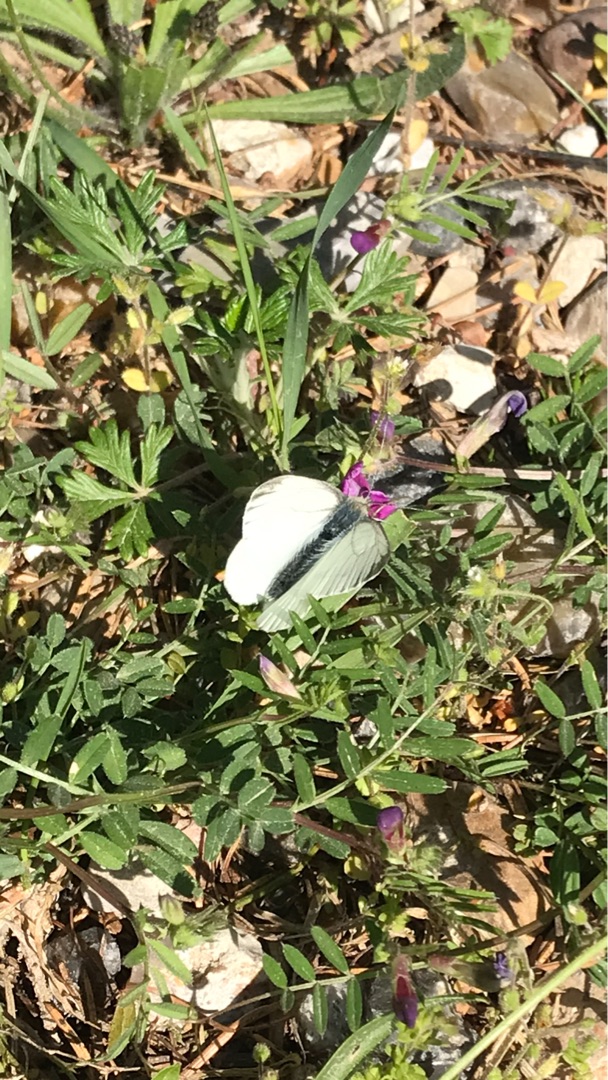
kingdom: Animalia
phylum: Arthropoda
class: Insecta
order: Lepidoptera
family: Pieridae
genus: Pieris
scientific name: Pieris napi
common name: Grønåret kålsommerfugl
